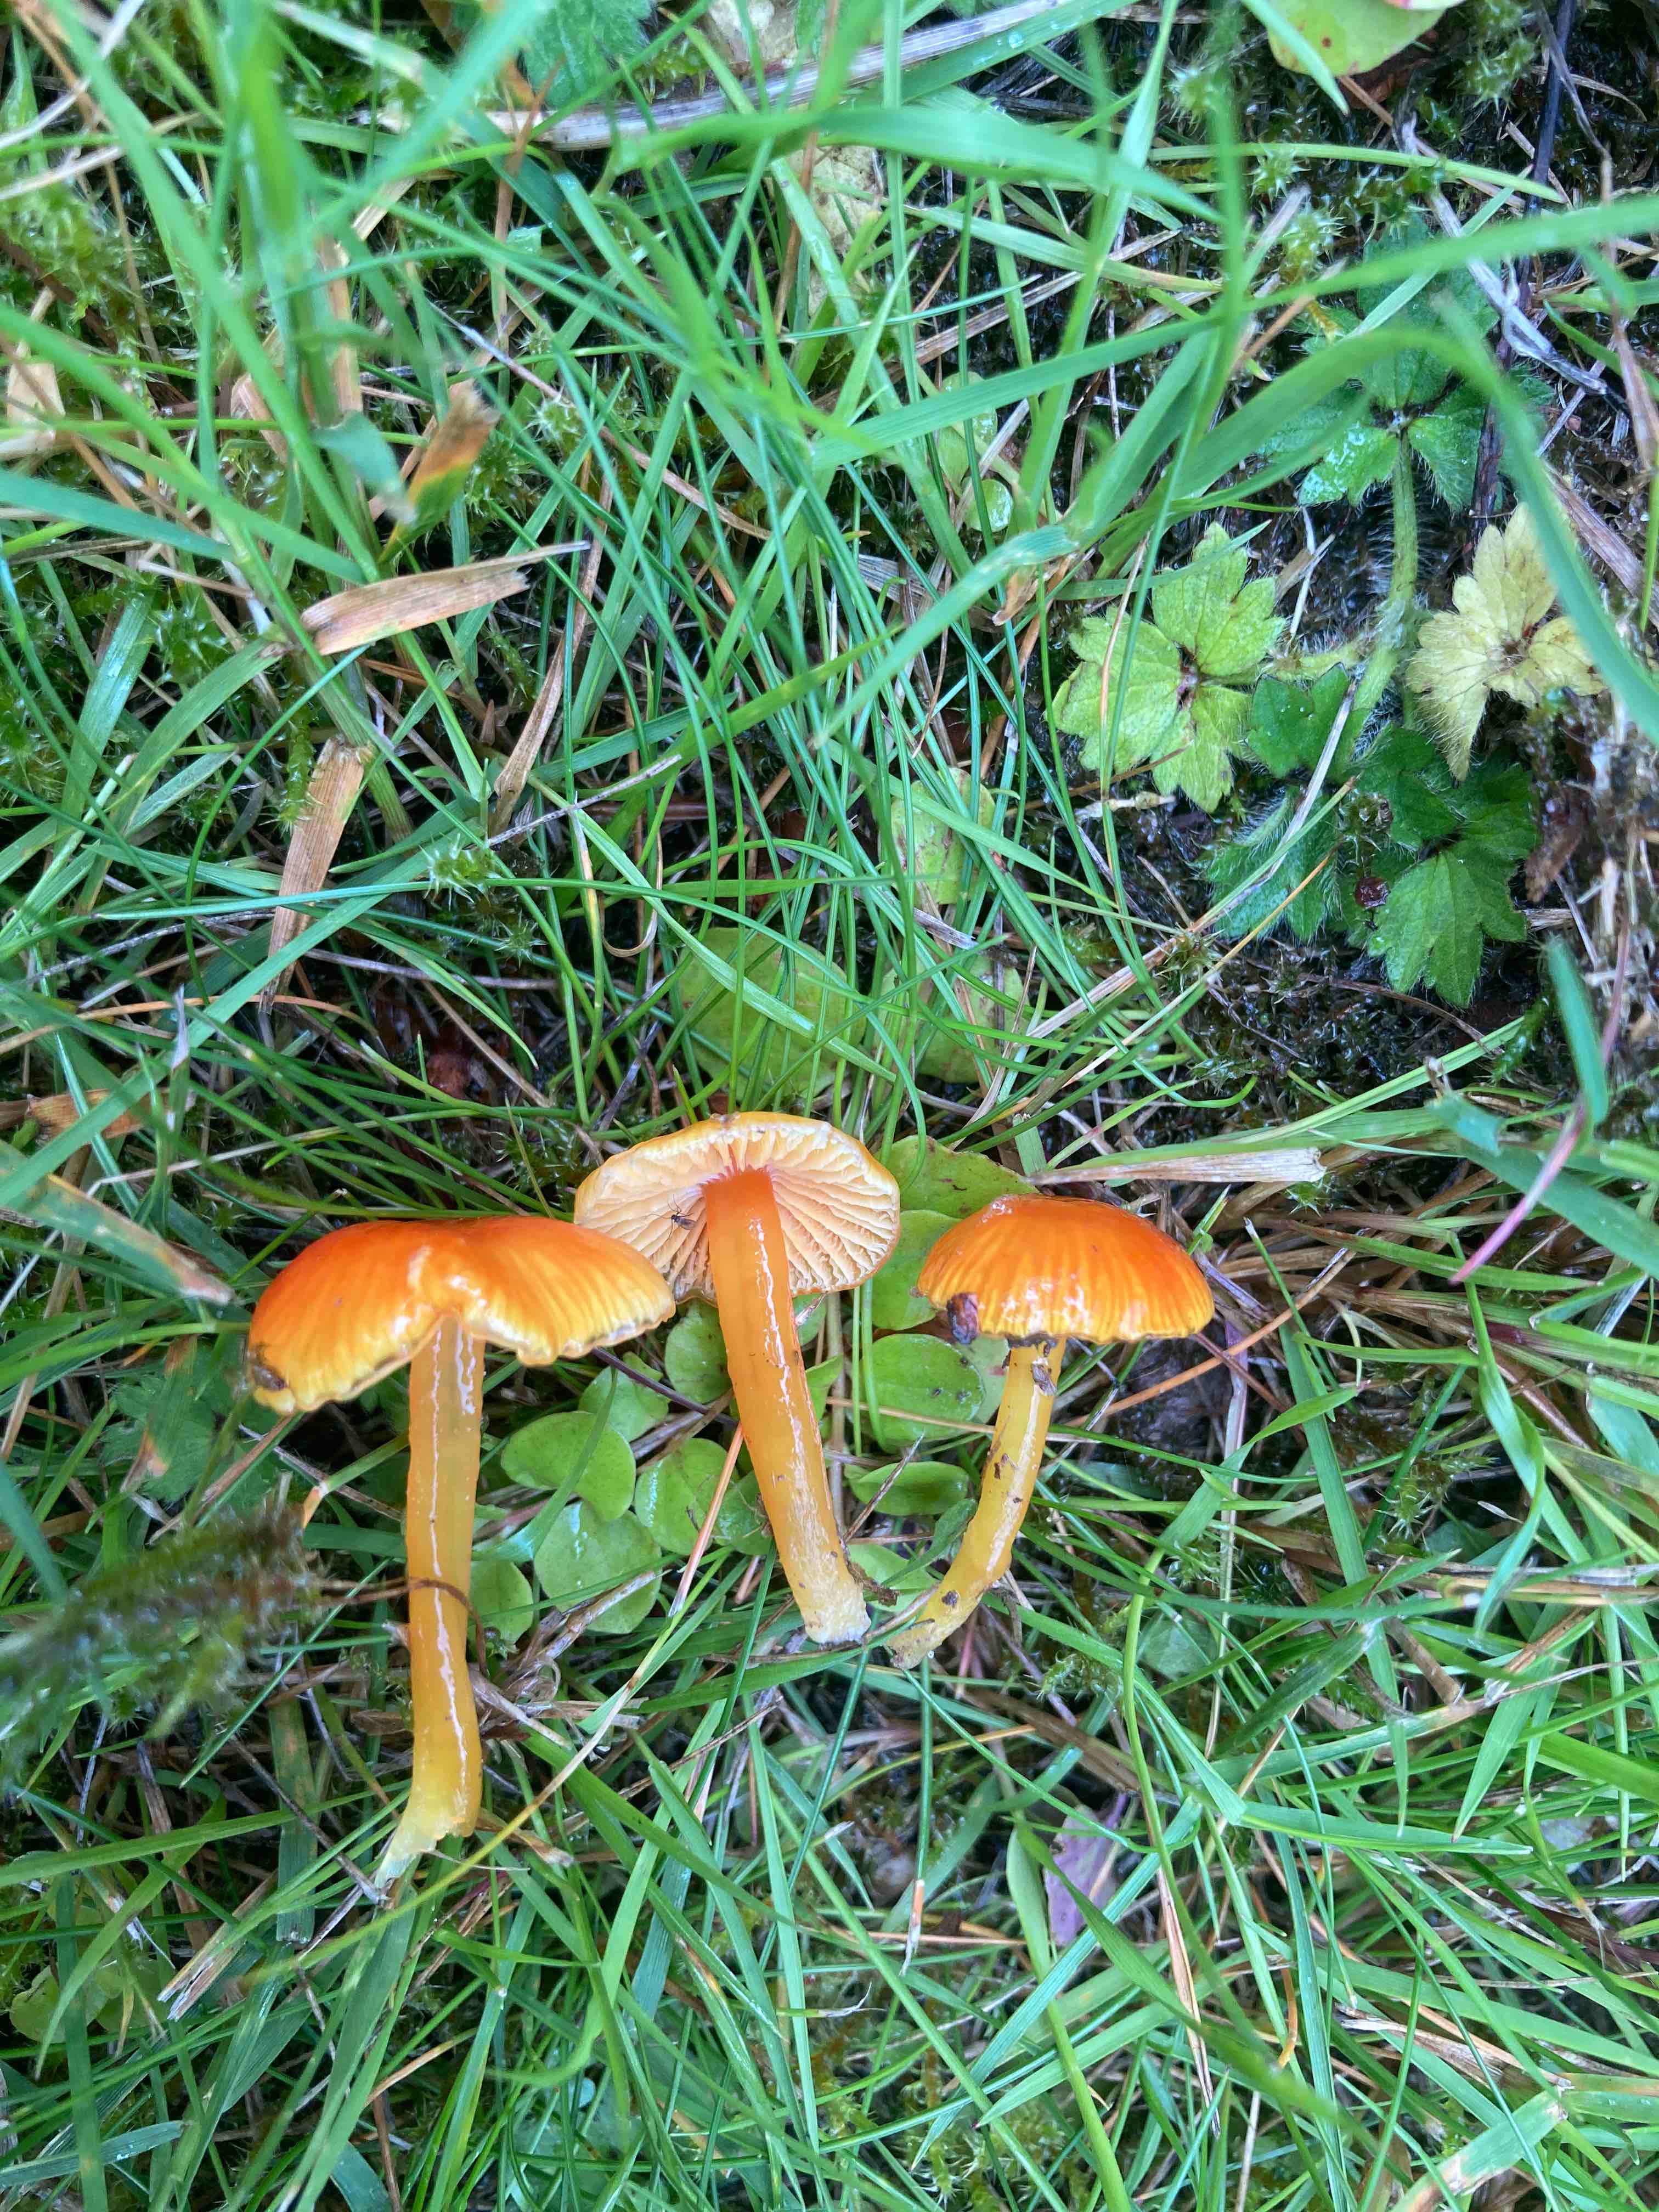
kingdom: Fungi
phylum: Basidiomycota
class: Agaricomycetes
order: Agaricales
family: Hygrophoraceae
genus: Hygrocybe
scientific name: Hygrocybe glutinipes
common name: slimstokket vokshat
